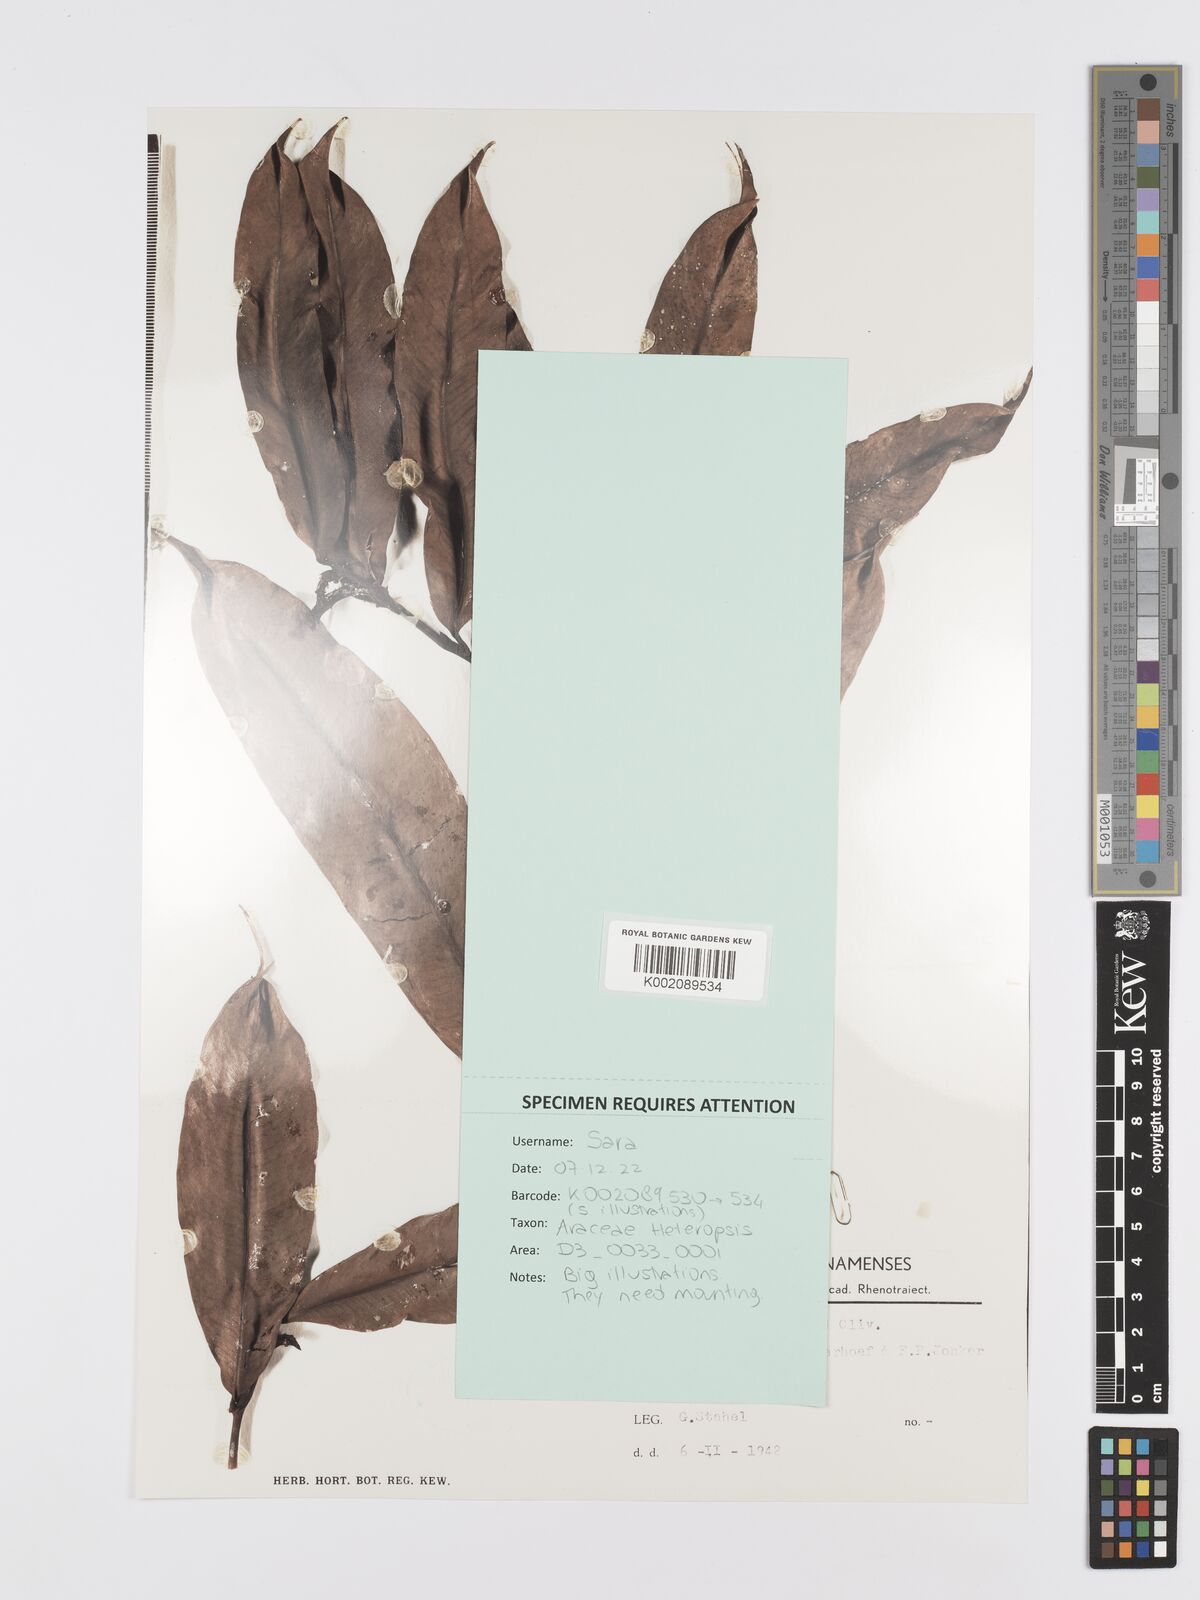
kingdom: Plantae
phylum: Tracheophyta
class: Liliopsida
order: Alismatales
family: Araceae
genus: Heteropsis
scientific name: Heteropsis flexuosa
